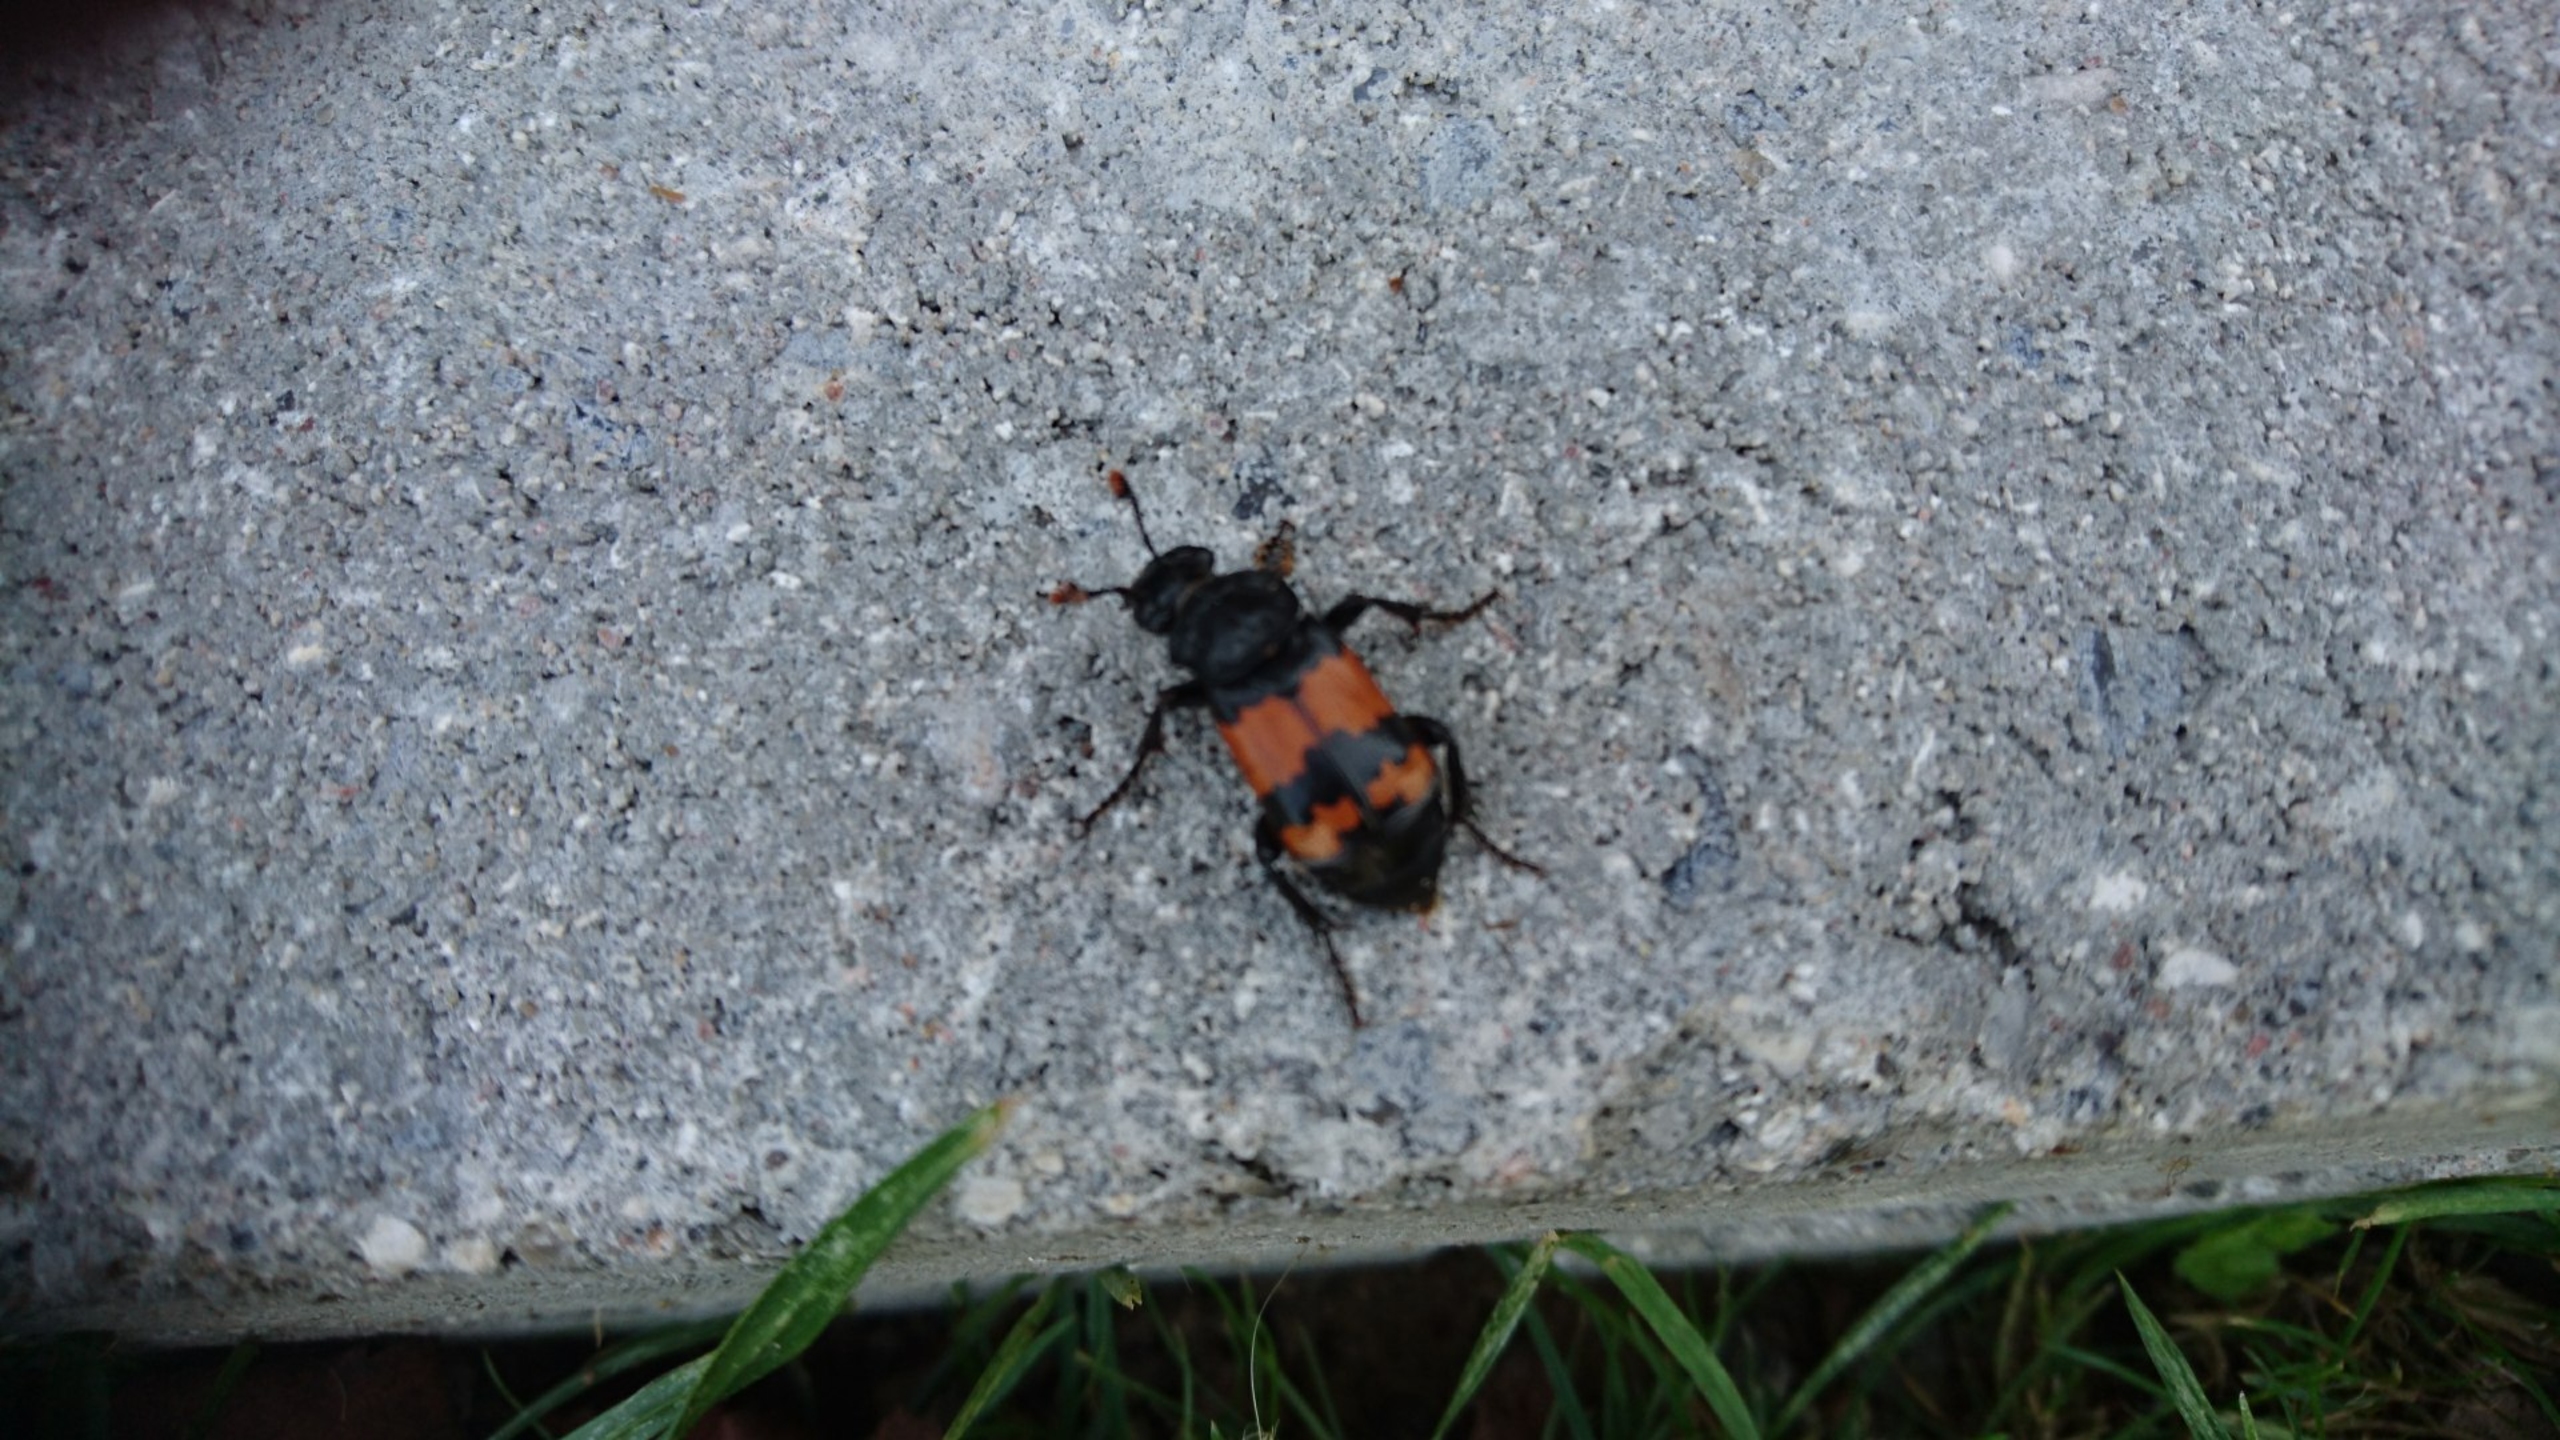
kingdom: Animalia
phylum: Arthropoda
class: Insecta
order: Coleoptera
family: Staphylinidae
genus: Nicrophorus
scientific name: Nicrophorus investigator
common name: Skovådselgraver
